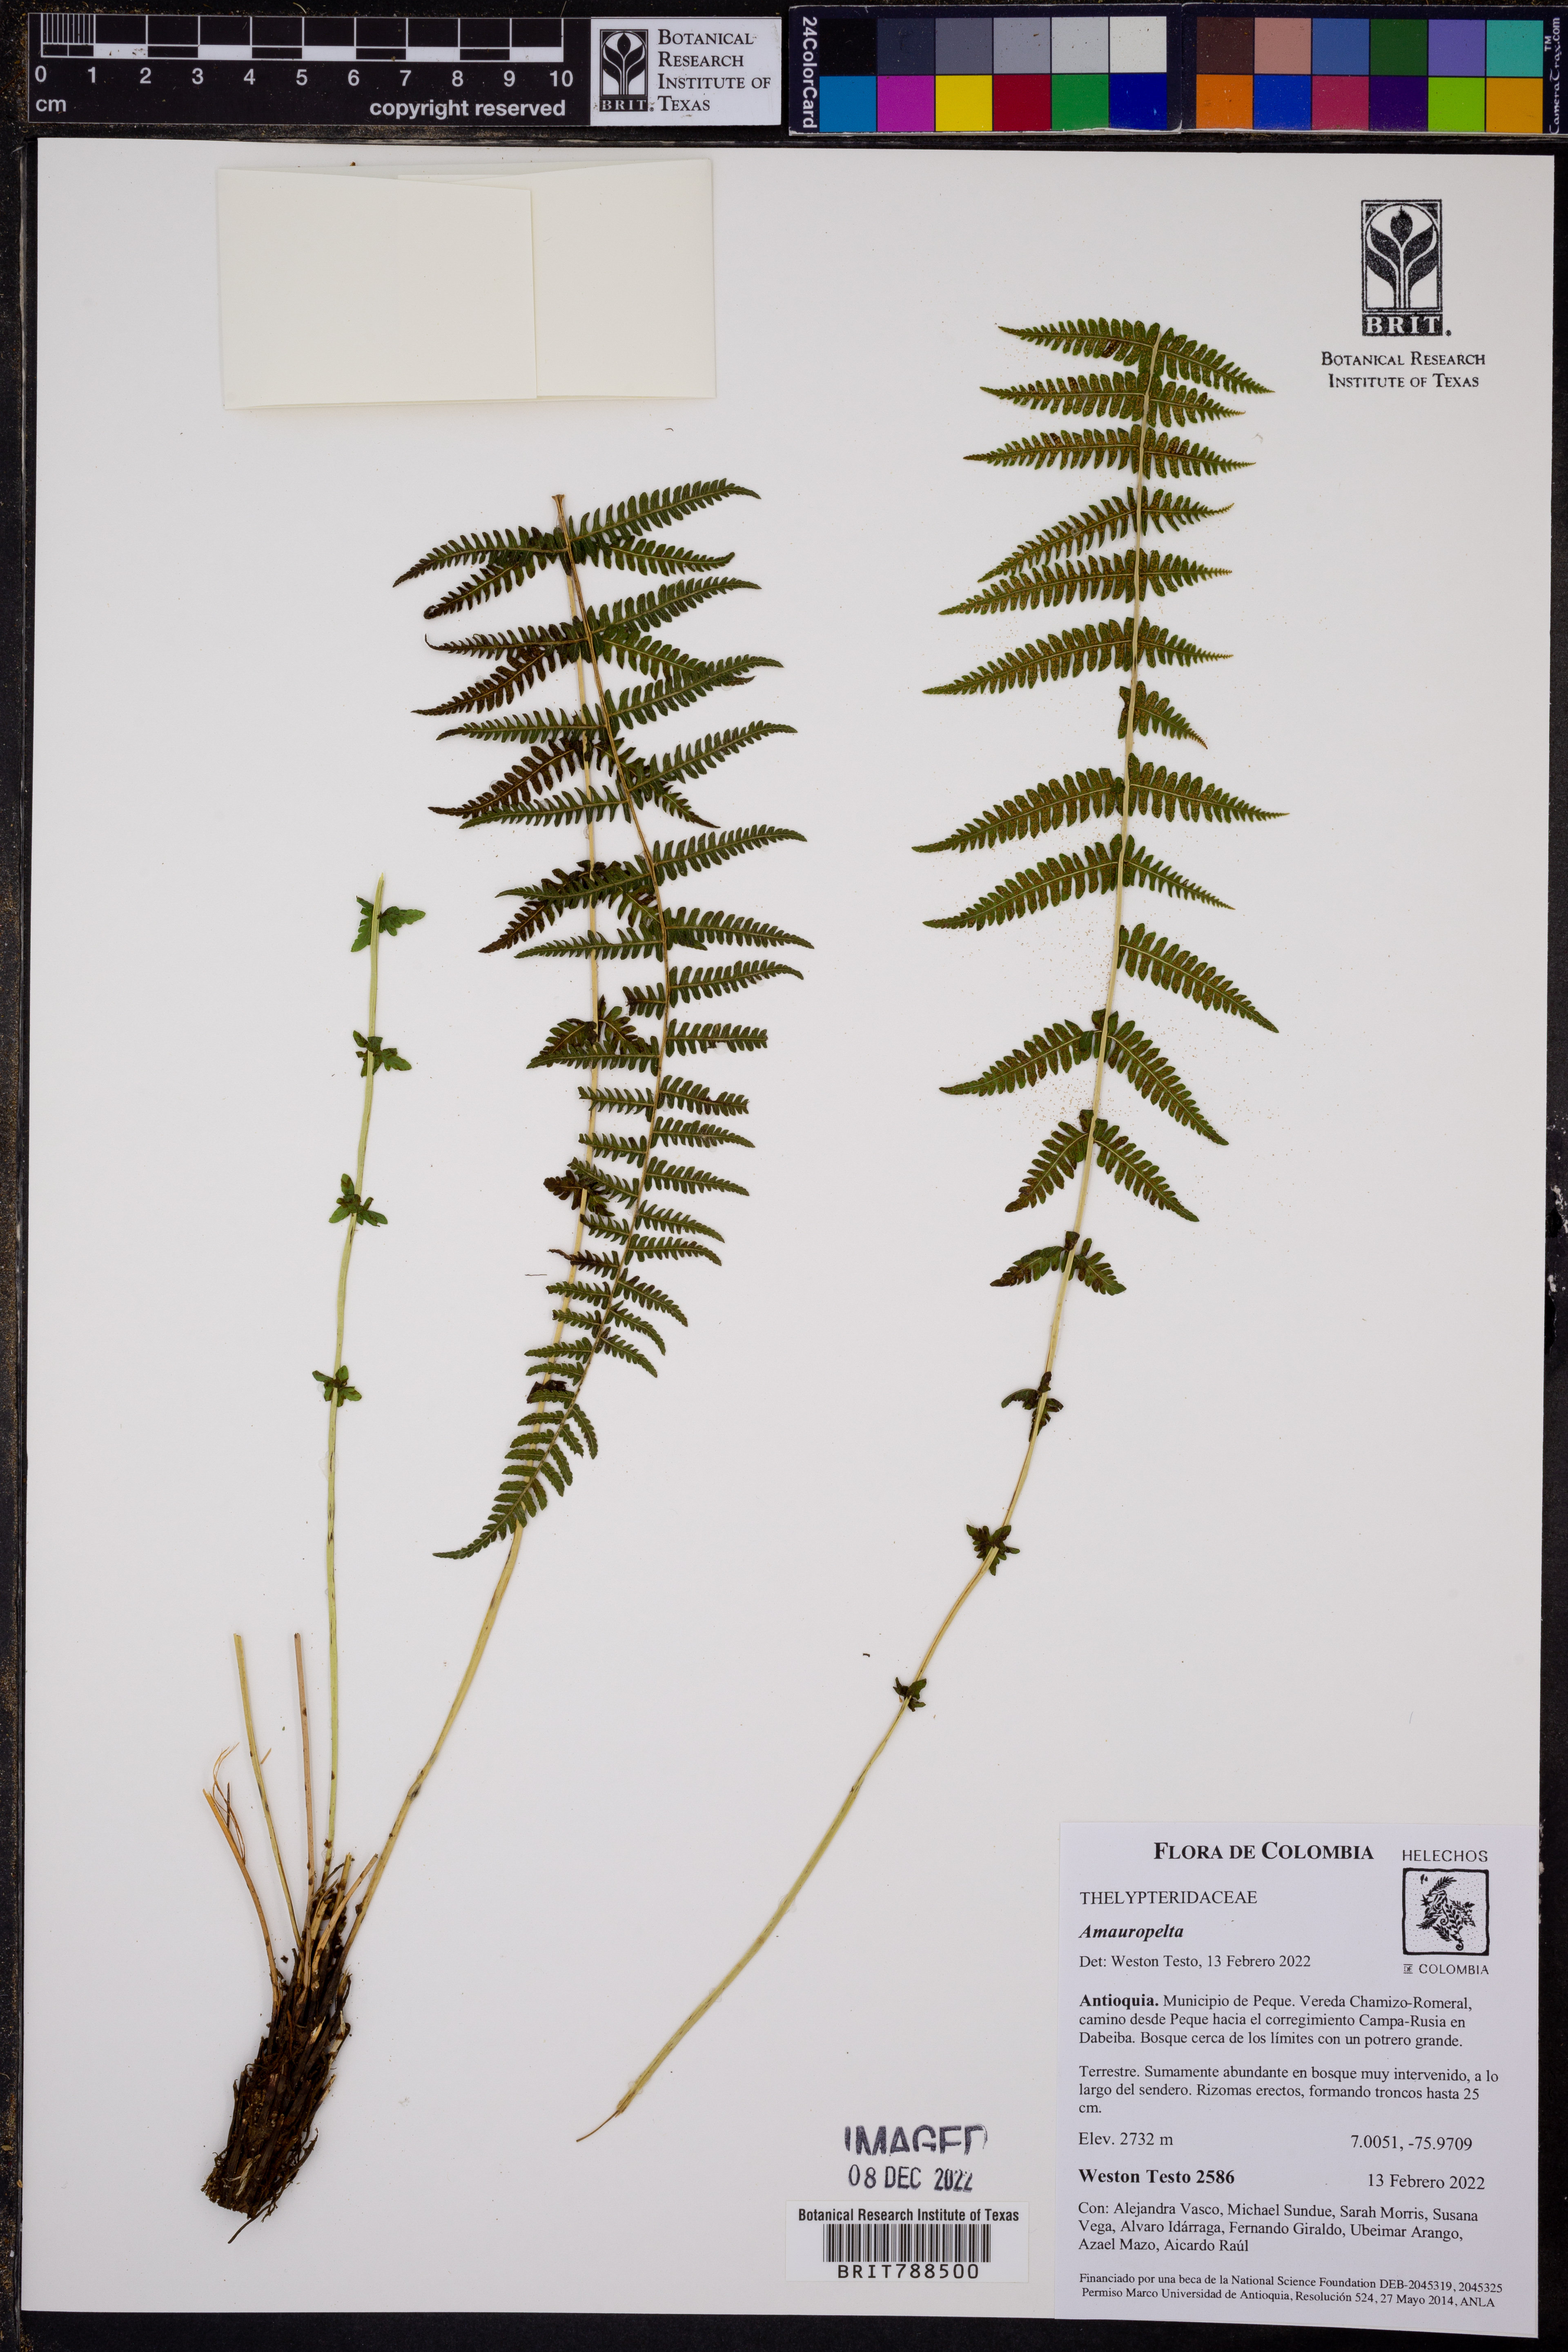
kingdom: Plantae
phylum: Tracheophyta
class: Polypodiopsida
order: Polypodiales
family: Thelypteridaceae
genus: Amauropelta
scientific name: Amauropelta
